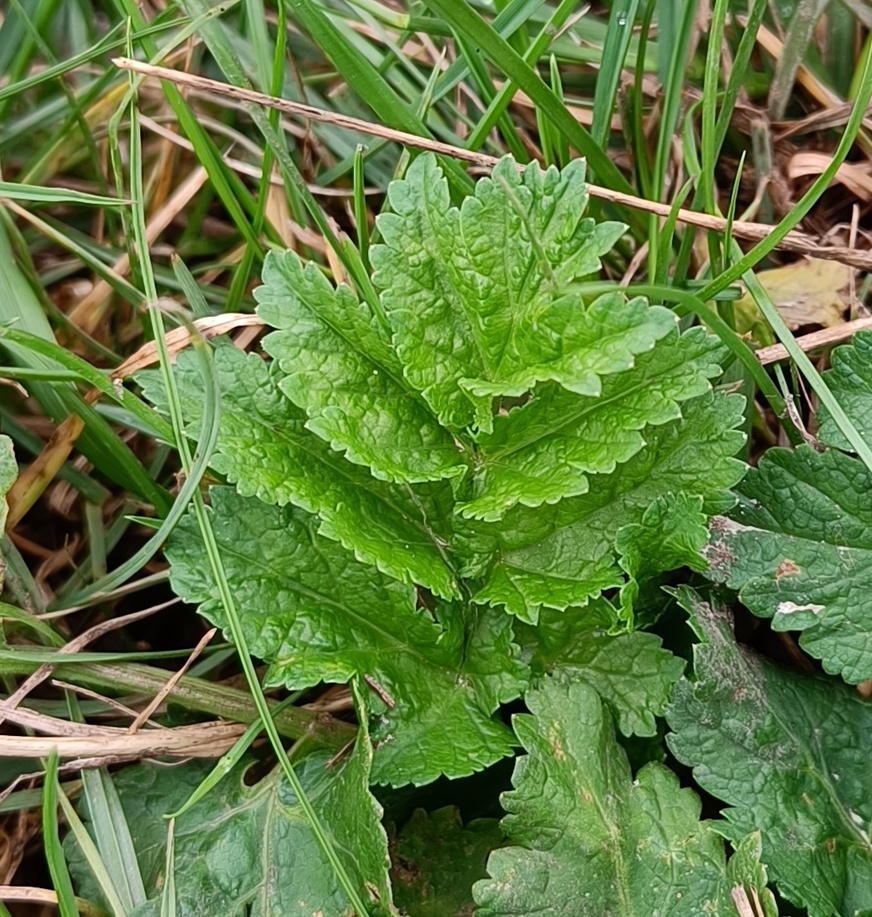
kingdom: Plantae
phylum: Tracheophyta
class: Magnoliopsida
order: Apiales
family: Apiaceae
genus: Pastinaca
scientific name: Pastinaca sativa
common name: Pastinak
